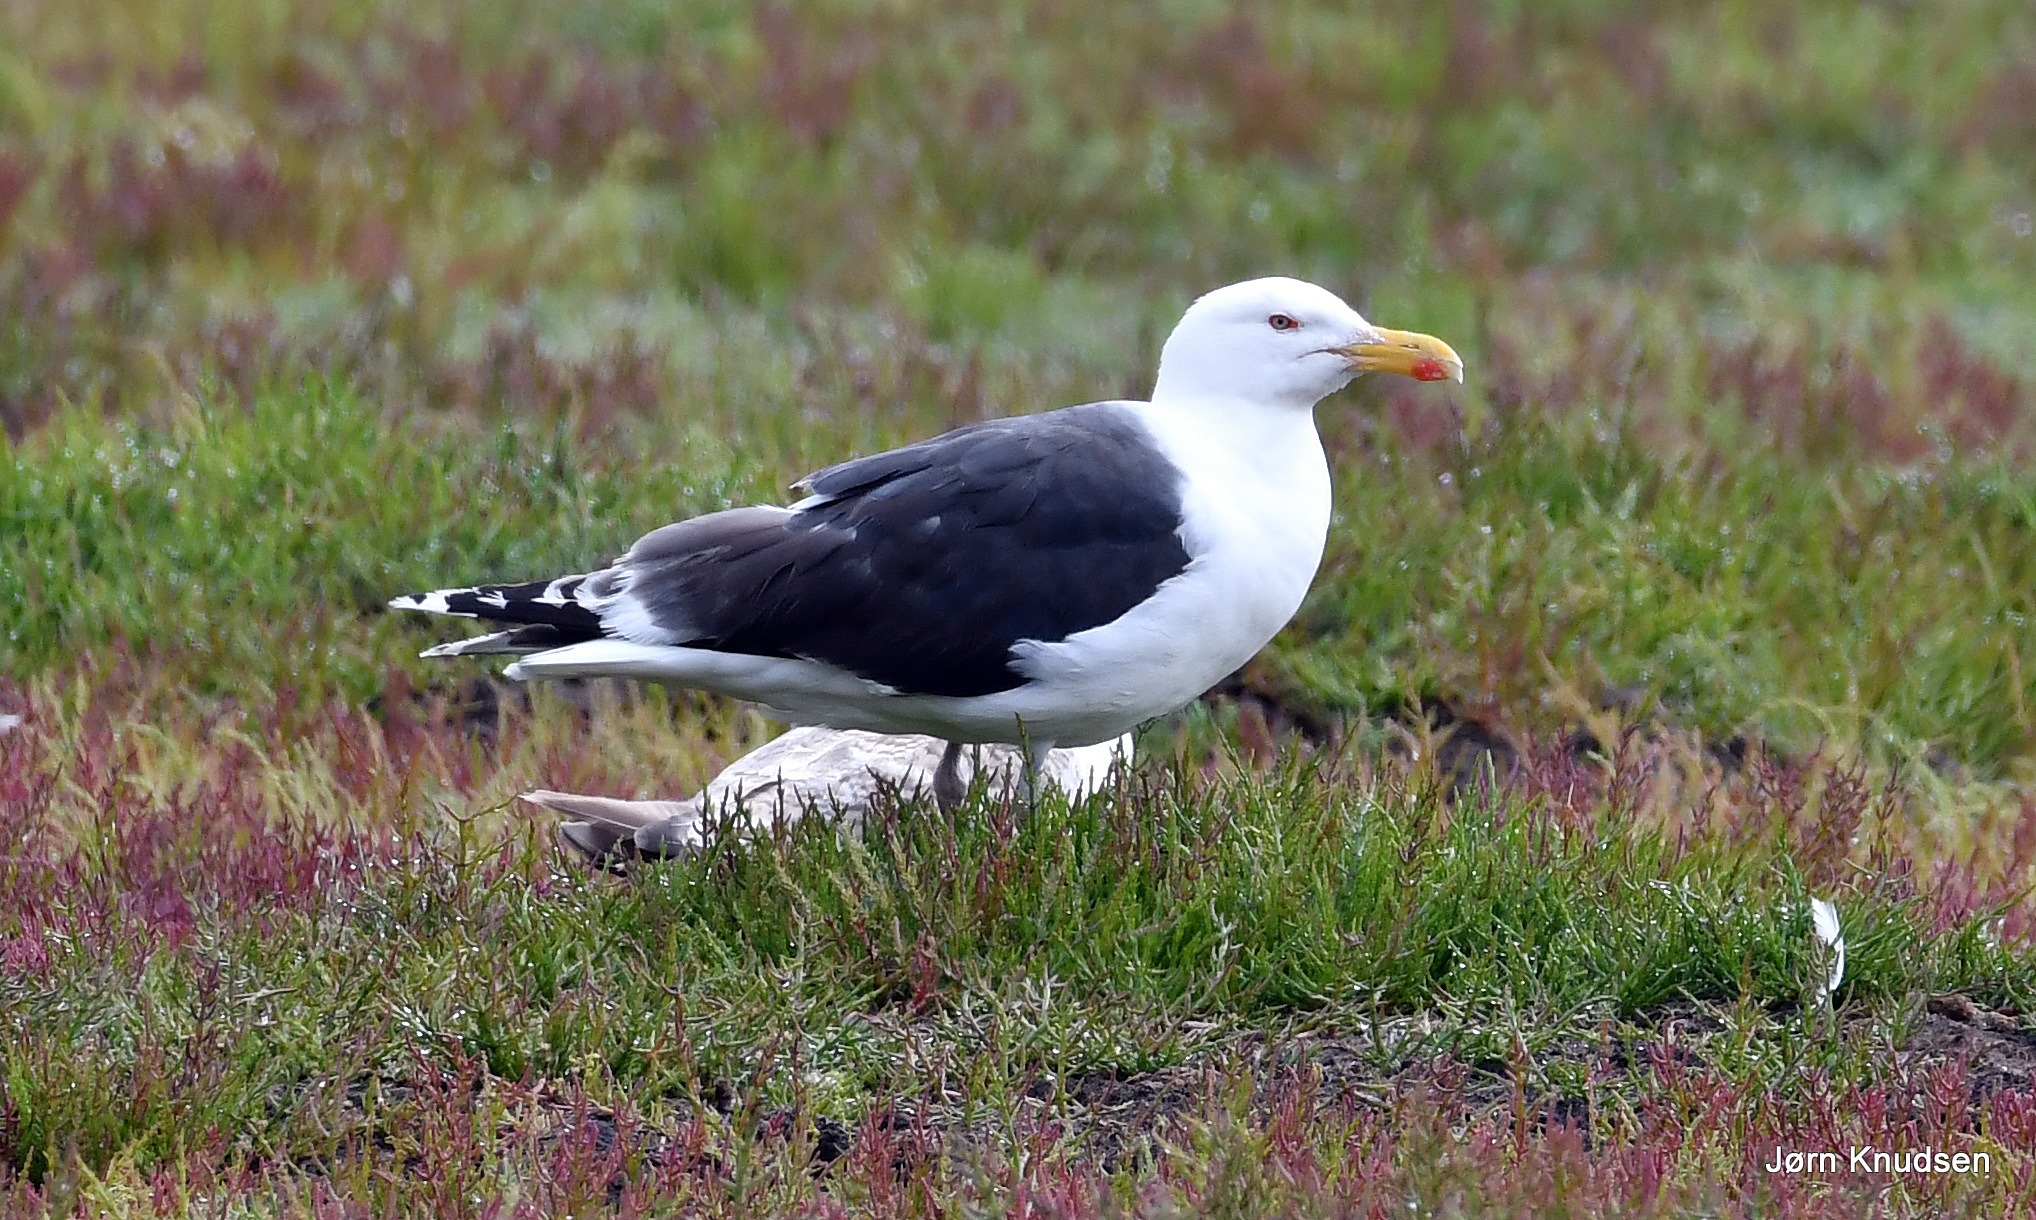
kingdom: Animalia
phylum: Chordata
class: Aves
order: Charadriiformes
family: Laridae
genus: Larus
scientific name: Larus marinus
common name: Svartbag
